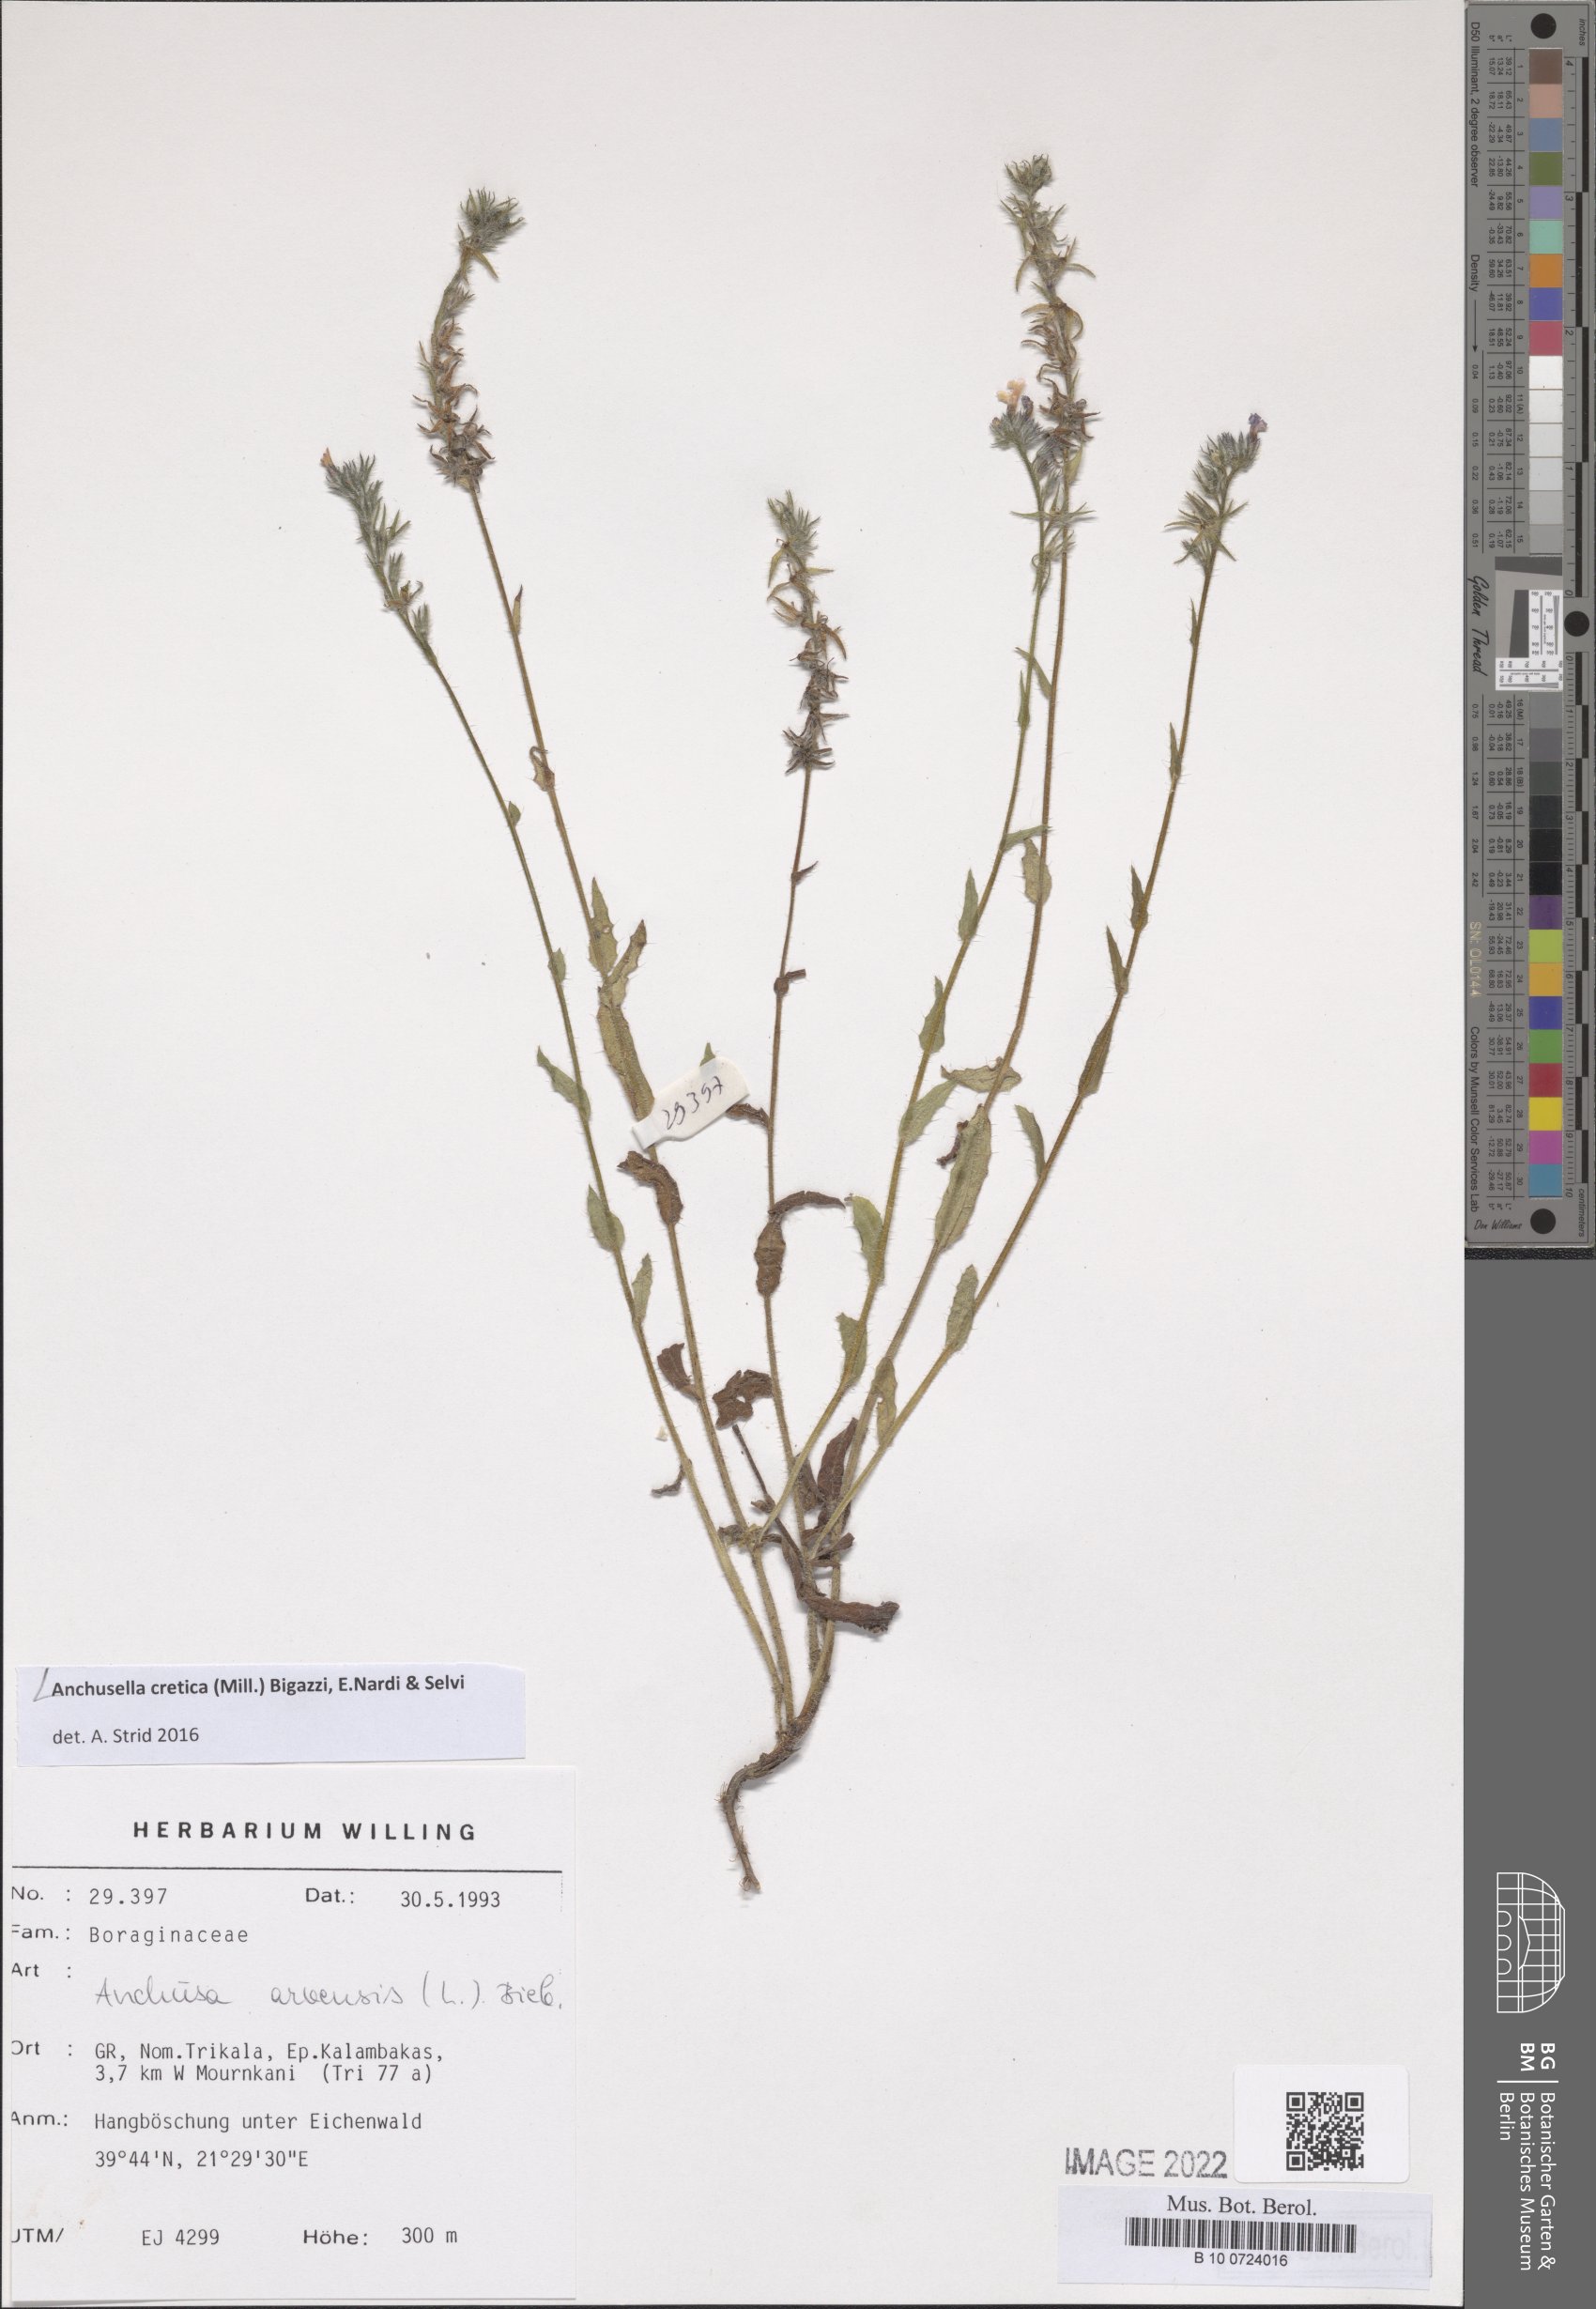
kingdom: Plantae
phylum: Tracheophyta
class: Magnoliopsida
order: Boraginales
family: Boraginaceae
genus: Anchusella
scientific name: Anchusella cretica
